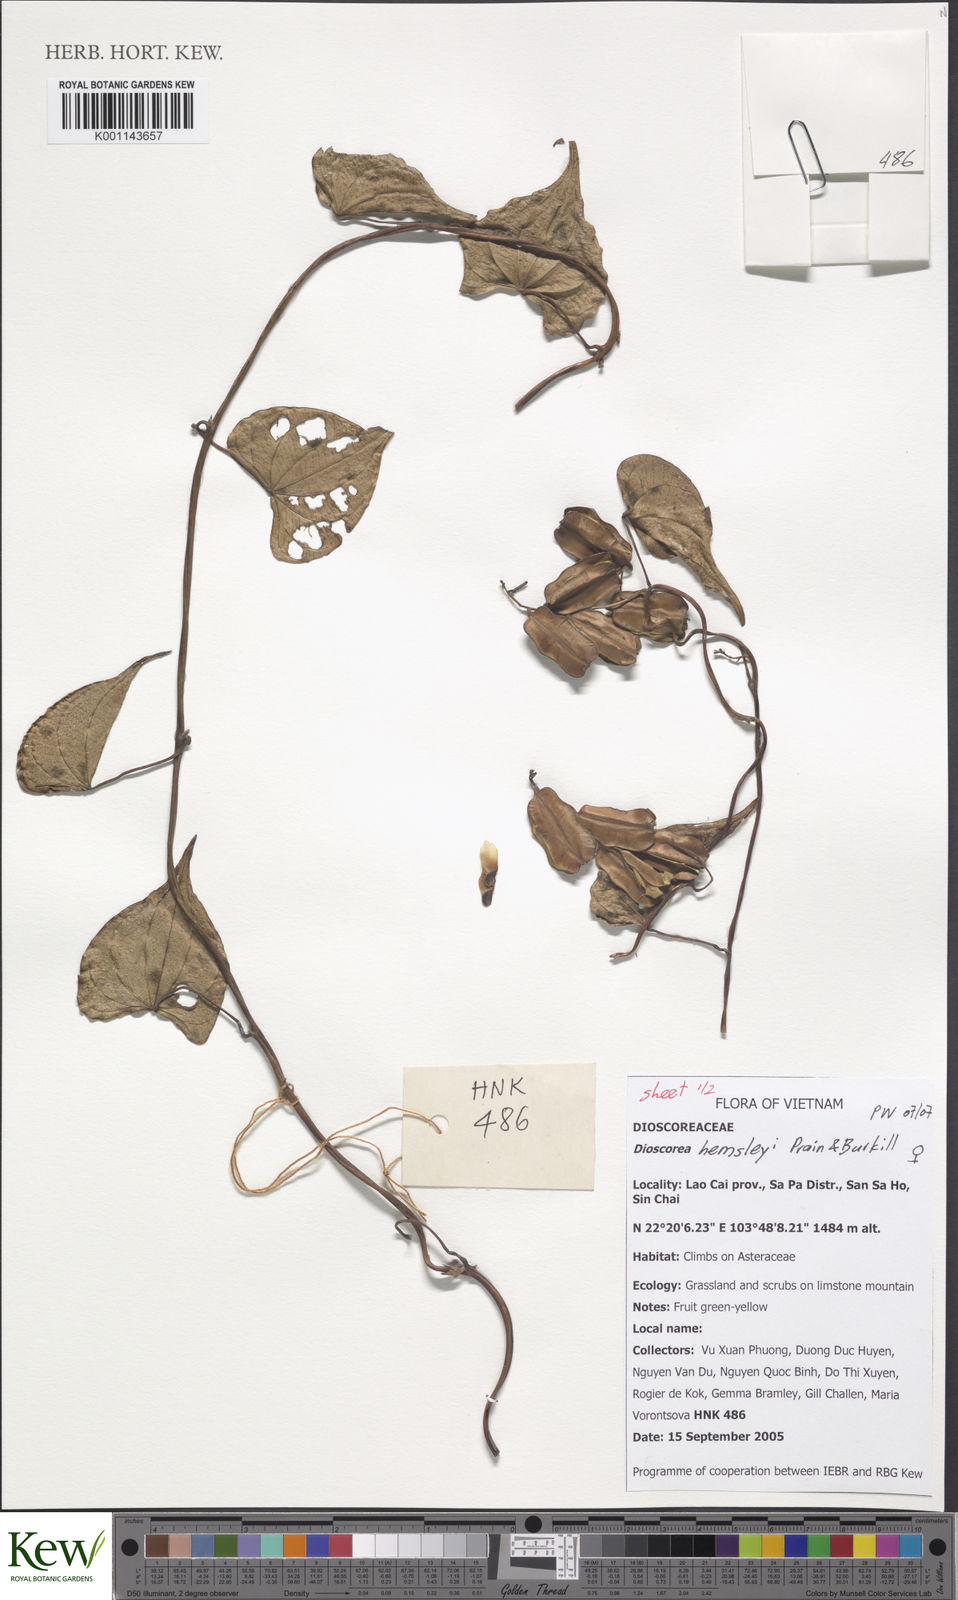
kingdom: Plantae
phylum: Tracheophyta
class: Liliopsida
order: Dioscoreales
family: Dioscoreaceae
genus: Dioscorea
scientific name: Dioscorea hemsleyi
